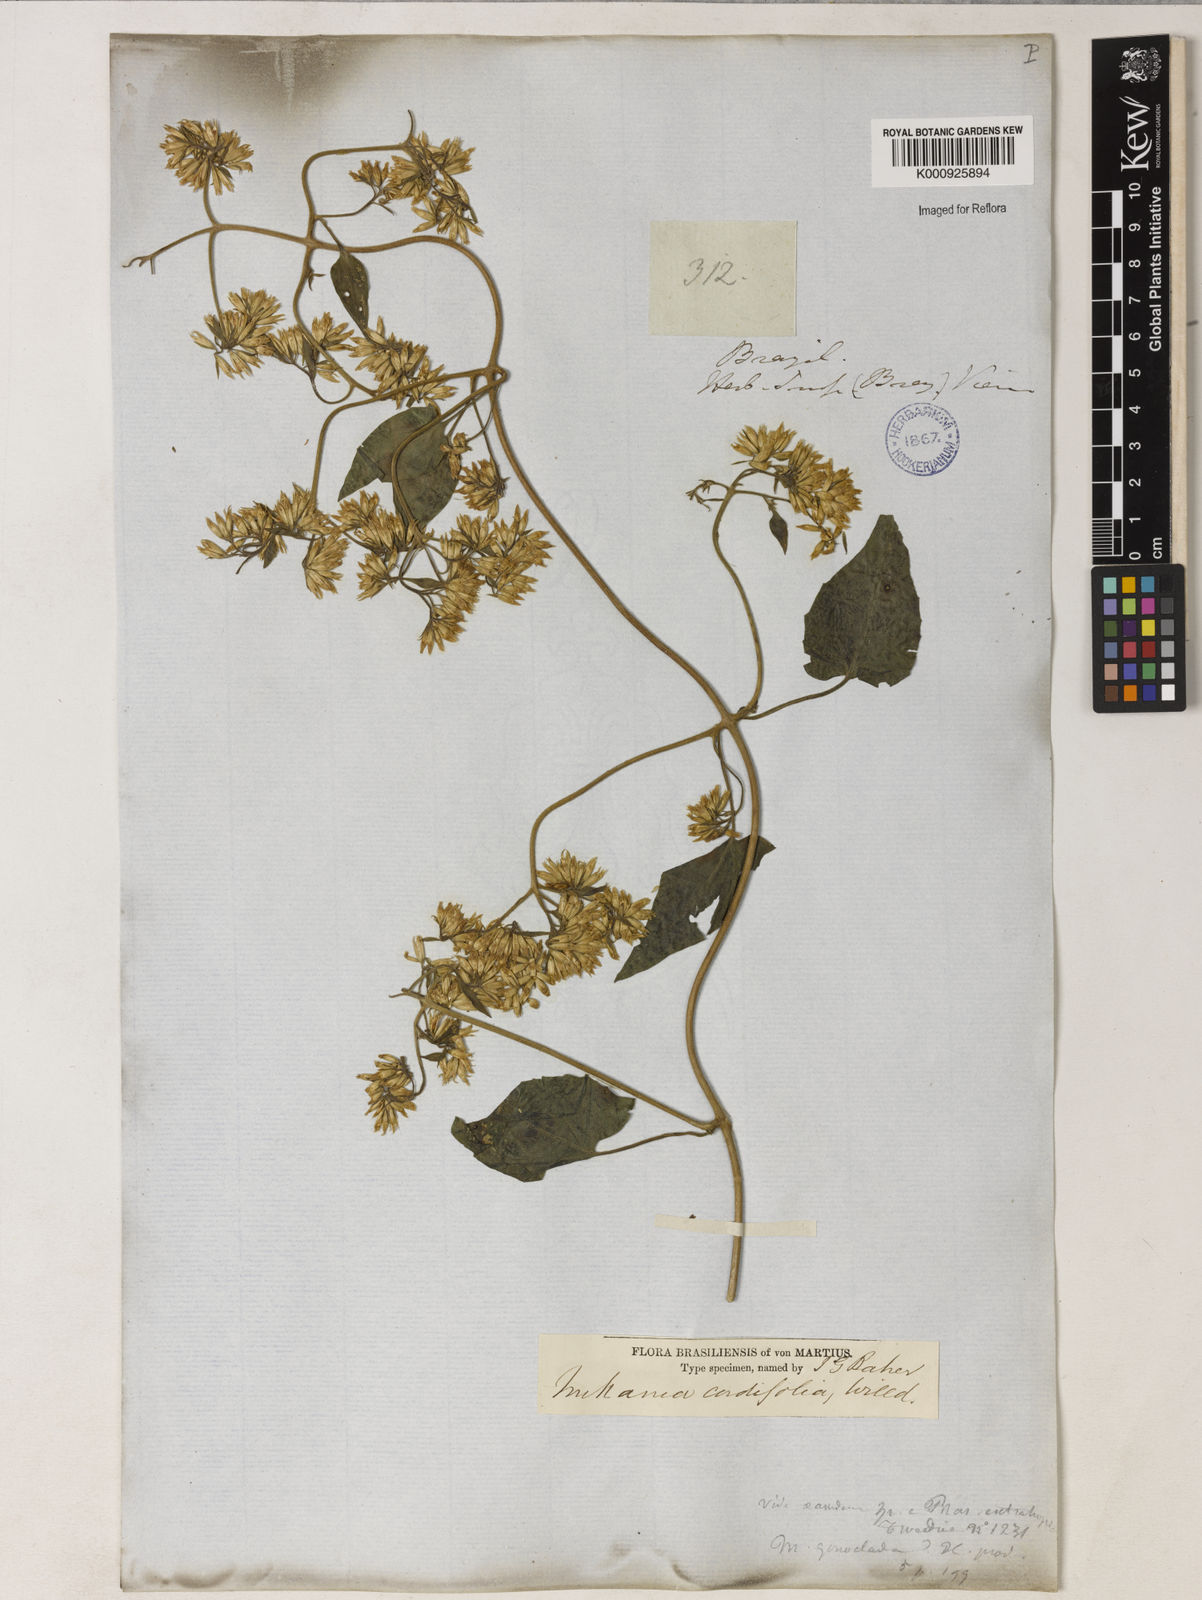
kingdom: Plantae
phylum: Tracheophyta
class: Magnoliopsida
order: Asterales
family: Asteraceae
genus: Mikania
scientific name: Mikania
